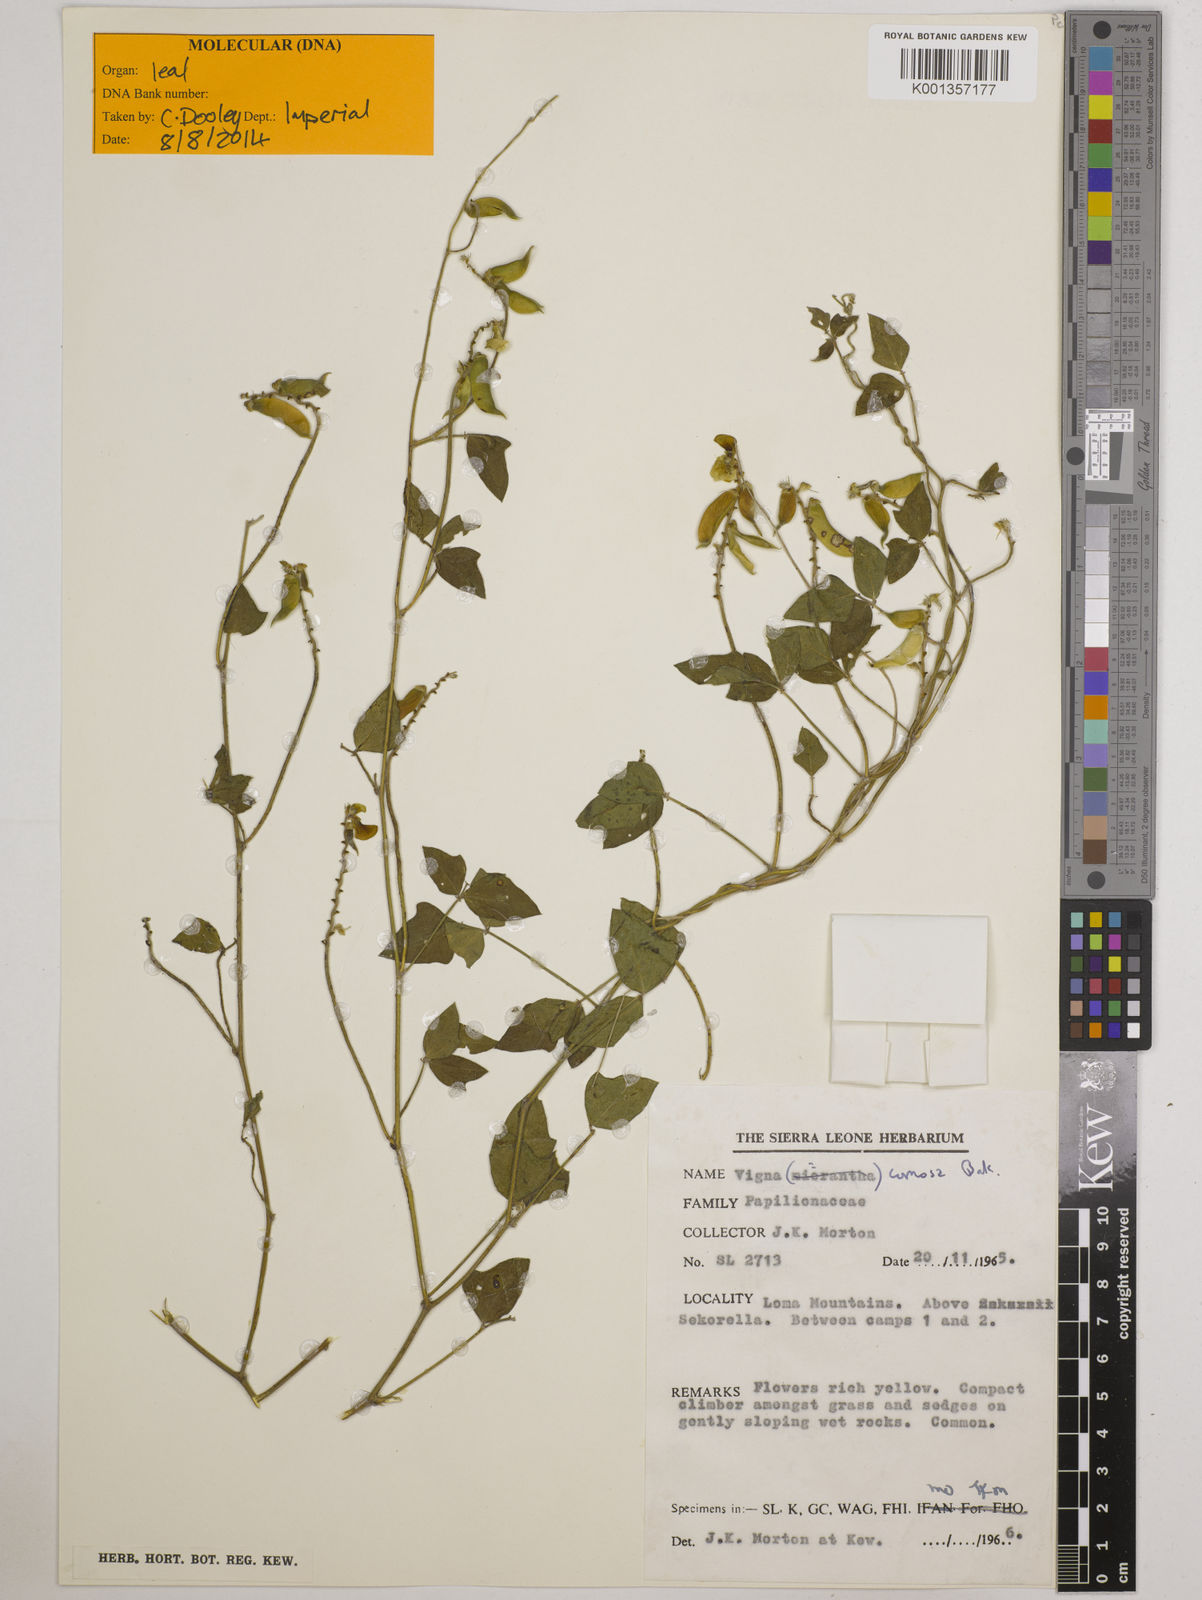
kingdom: Plantae
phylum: Tracheophyta
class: Magnoliopsida
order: Fabales
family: Fabaceae
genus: Vigna
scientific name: Vigna comosa
